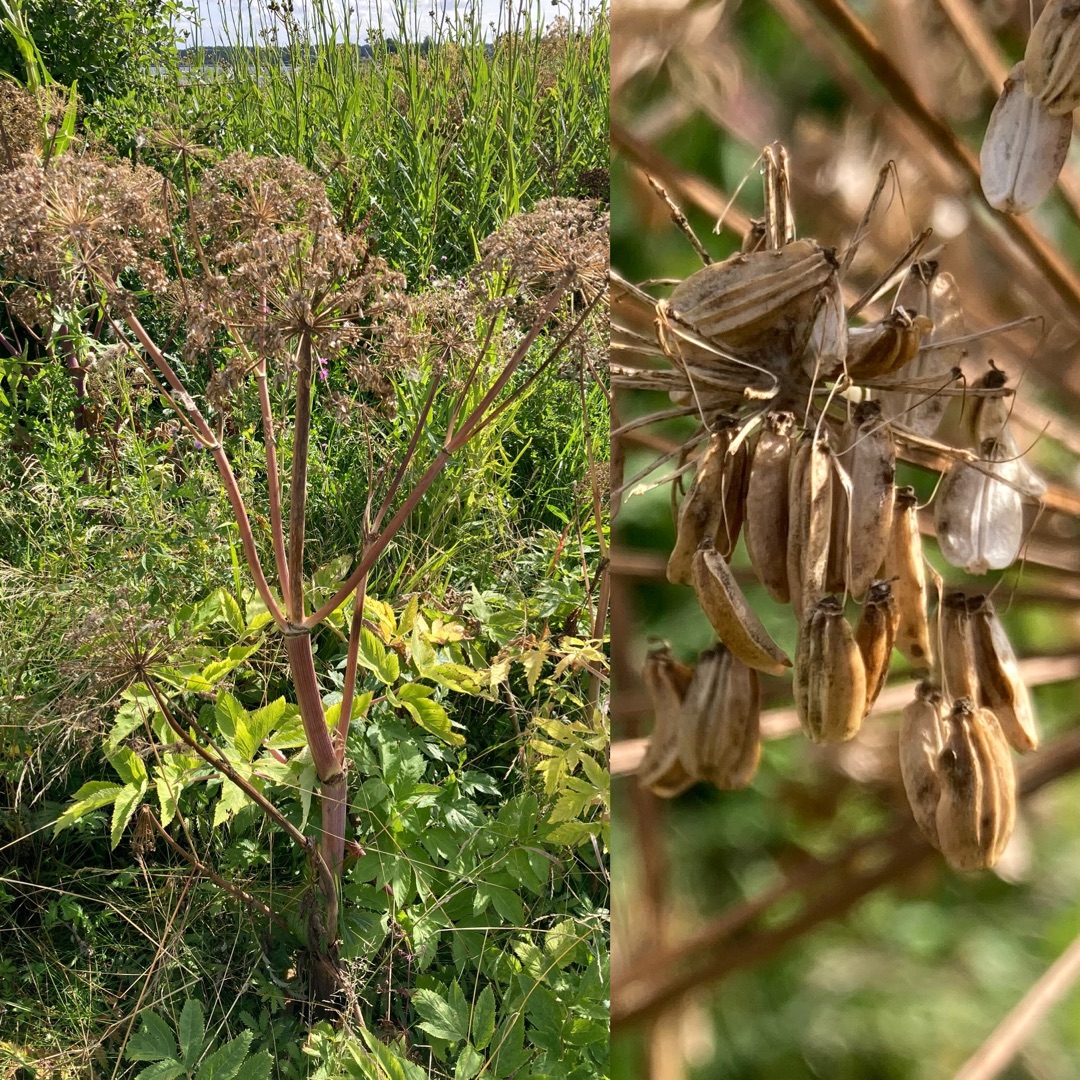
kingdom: Plantae
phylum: Tracheophyta
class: Magnoliopsida
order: Apiales
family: Apiaceae
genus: Angelica
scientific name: Angelica archangelica
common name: Kvan
